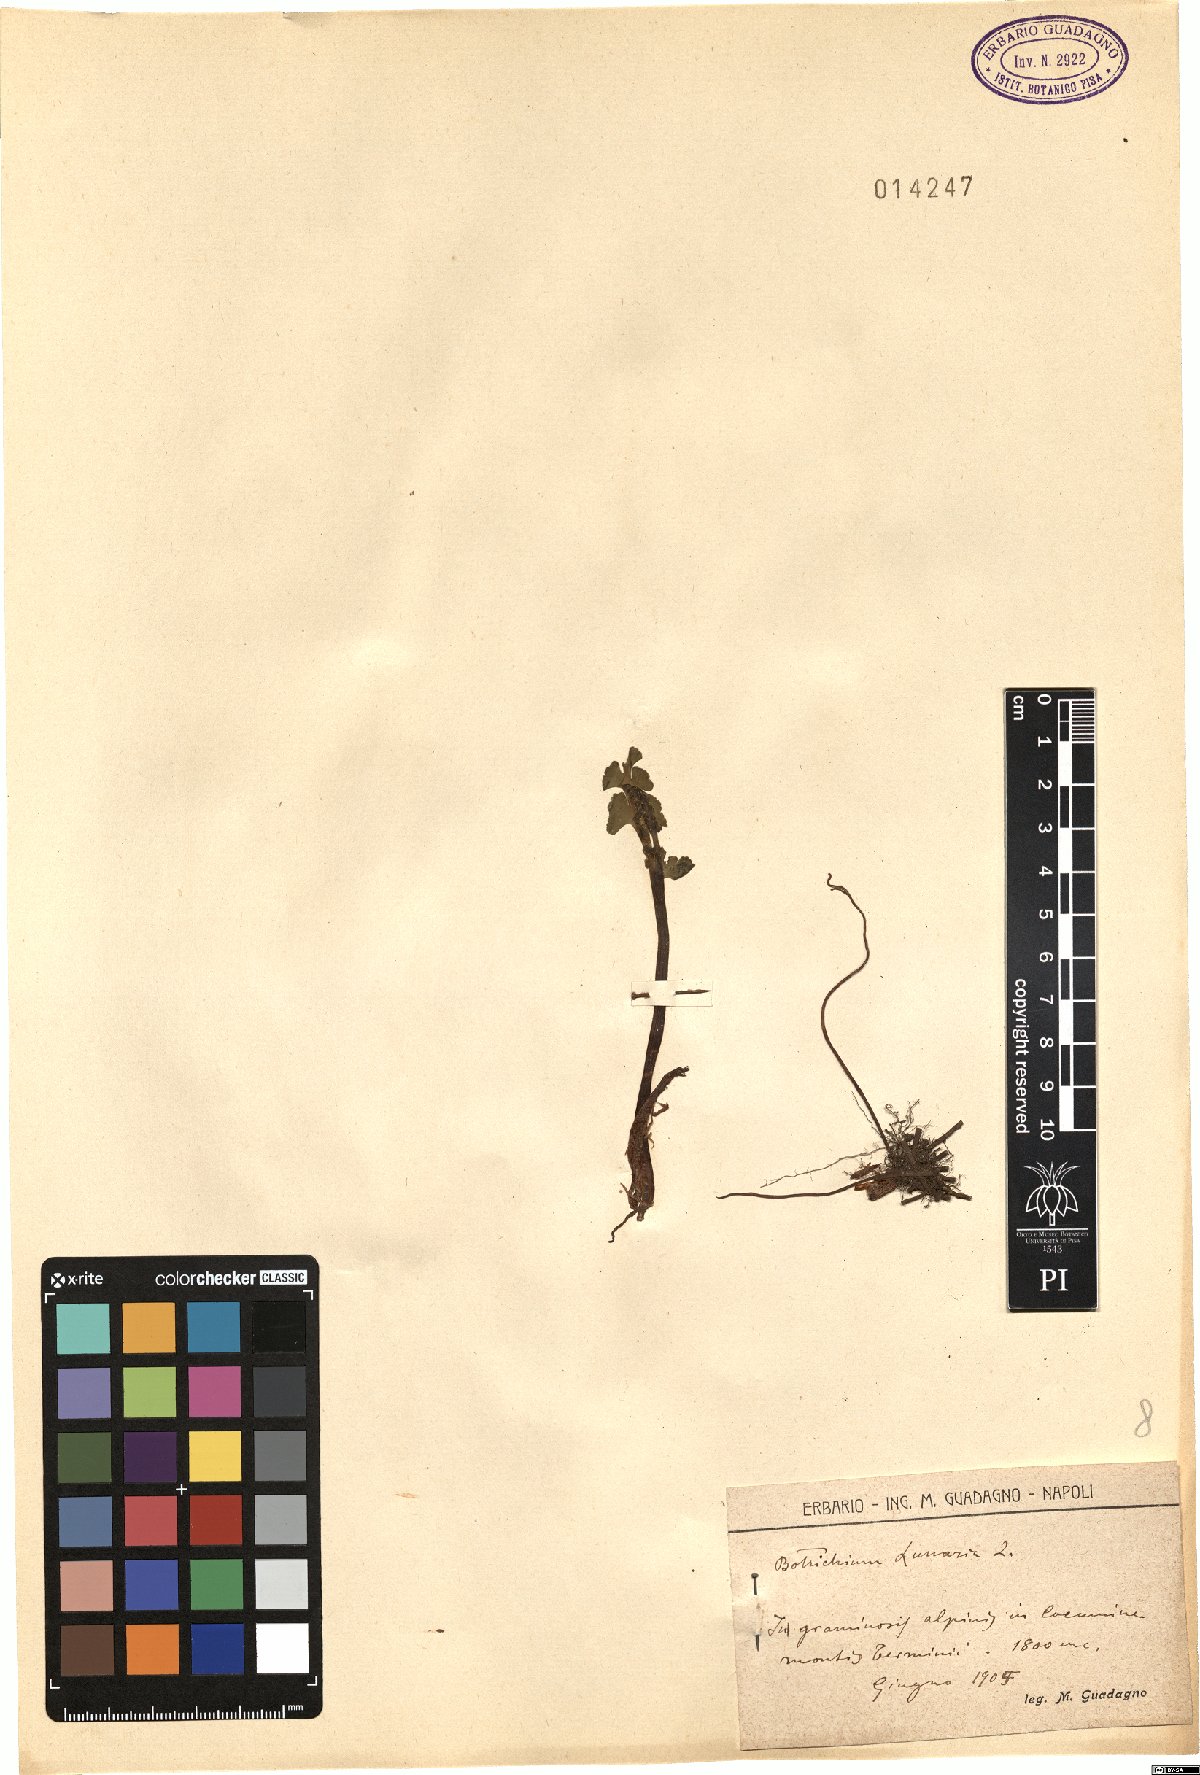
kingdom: Plantae
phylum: Tracheophyta
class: Polypodiopsida
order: Ophioglossales
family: Ophioglossaceae
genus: Botrychium
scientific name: Botrychium lunaria
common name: Moonwort
